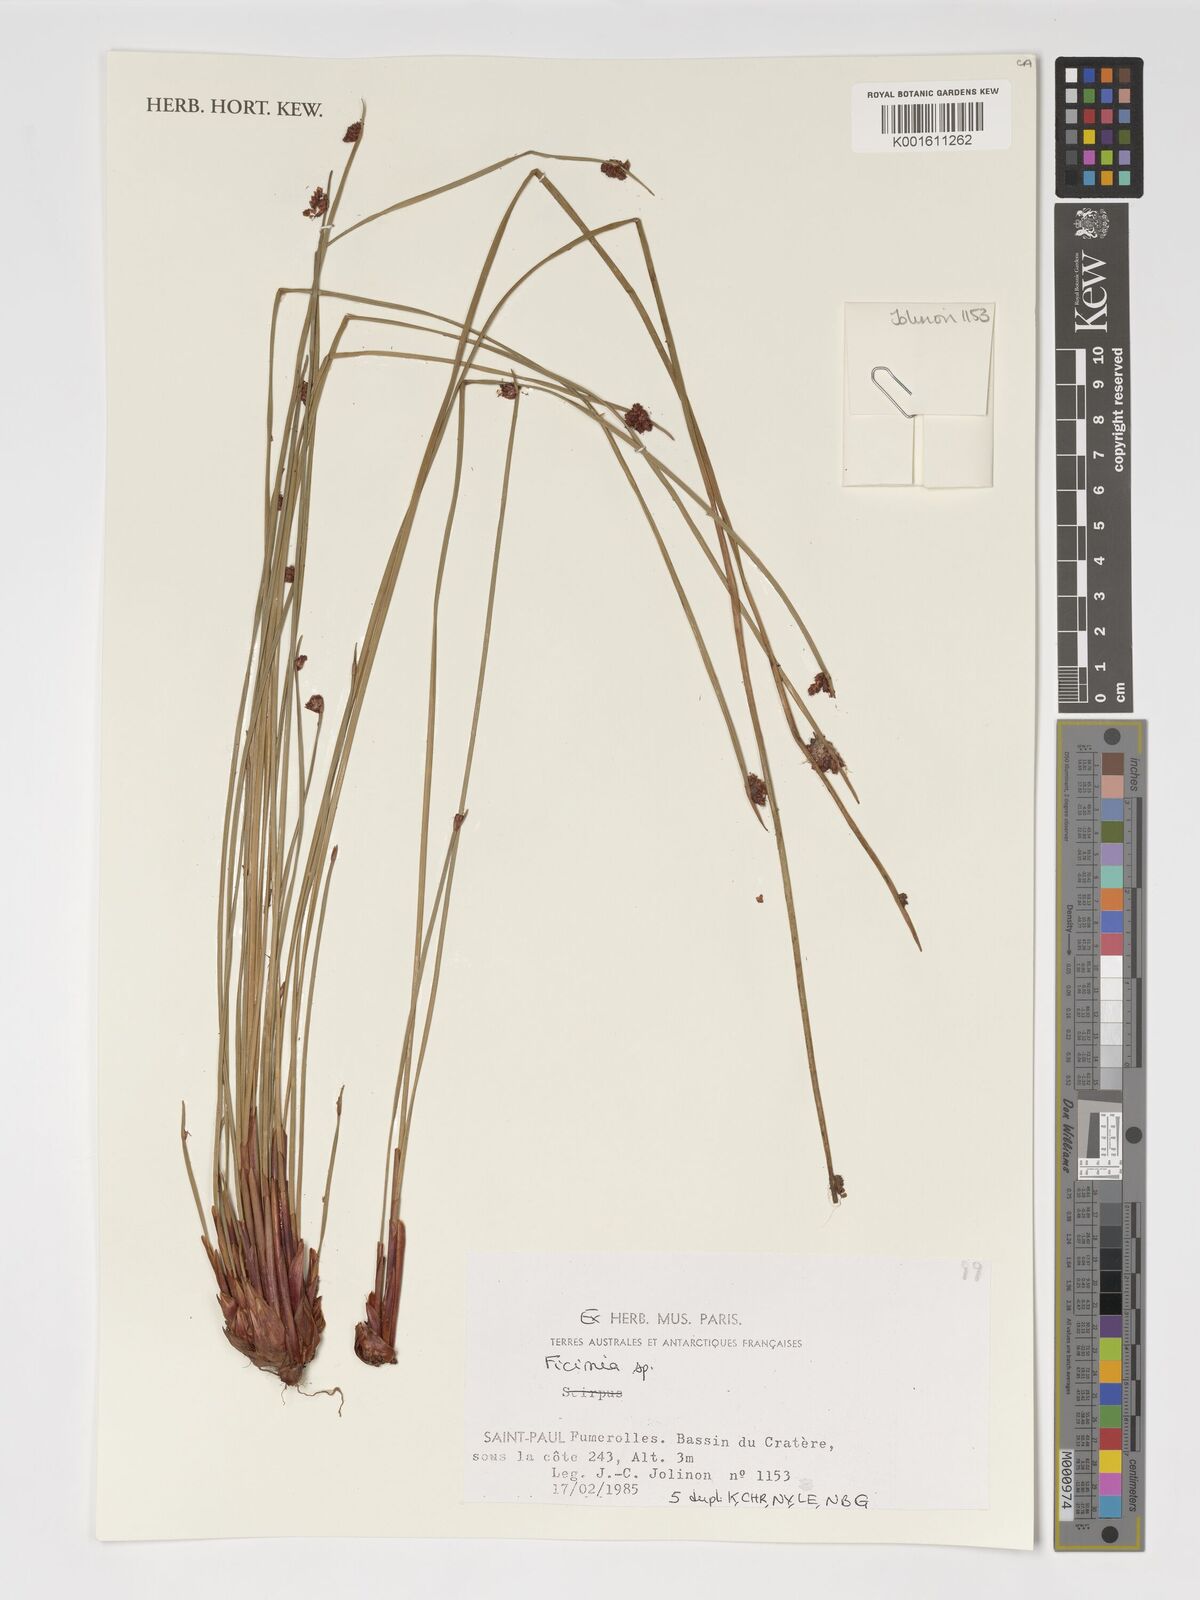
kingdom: Plantae
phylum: Tracheophyta
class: Liliopsida
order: Poales
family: Cyperaceae
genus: Ficinia
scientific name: Ficinia
